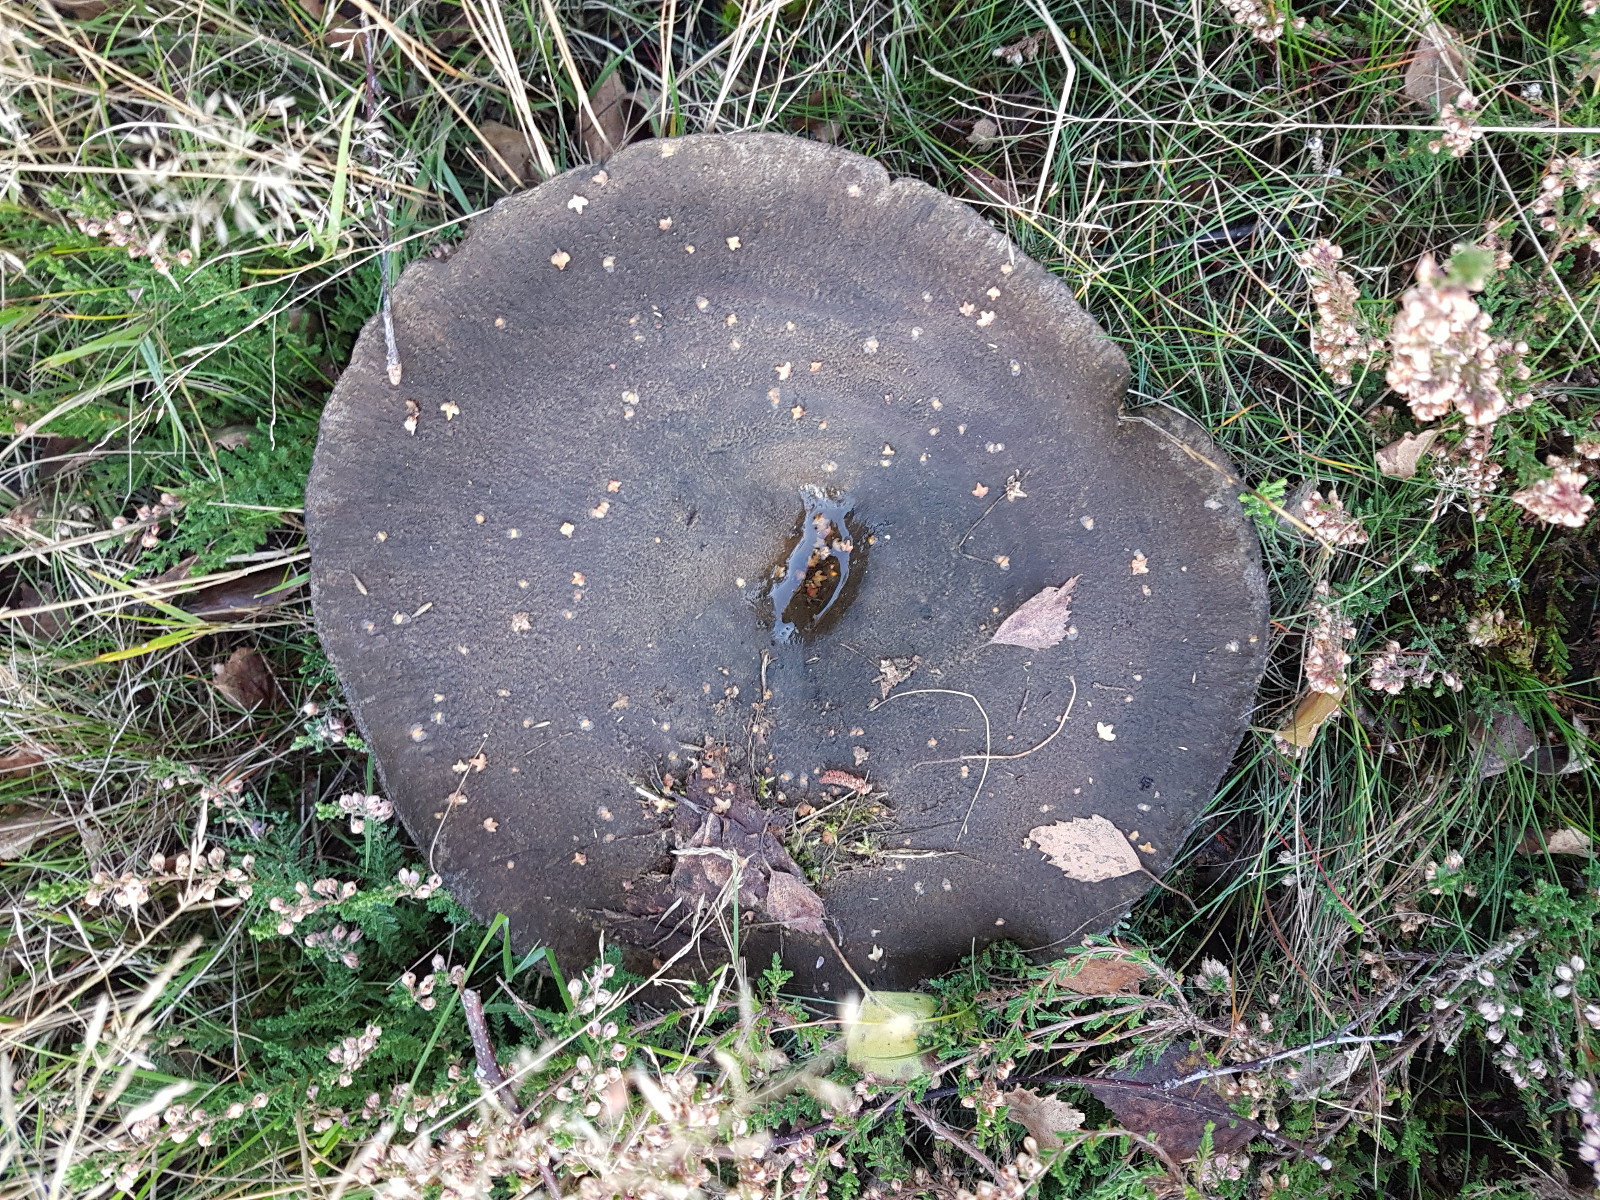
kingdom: Fungi
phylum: Basidiomycota
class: Agaricomycetes
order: Russulales
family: Russulaceae
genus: Russula
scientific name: Russula adusta
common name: sværtende skørhat
